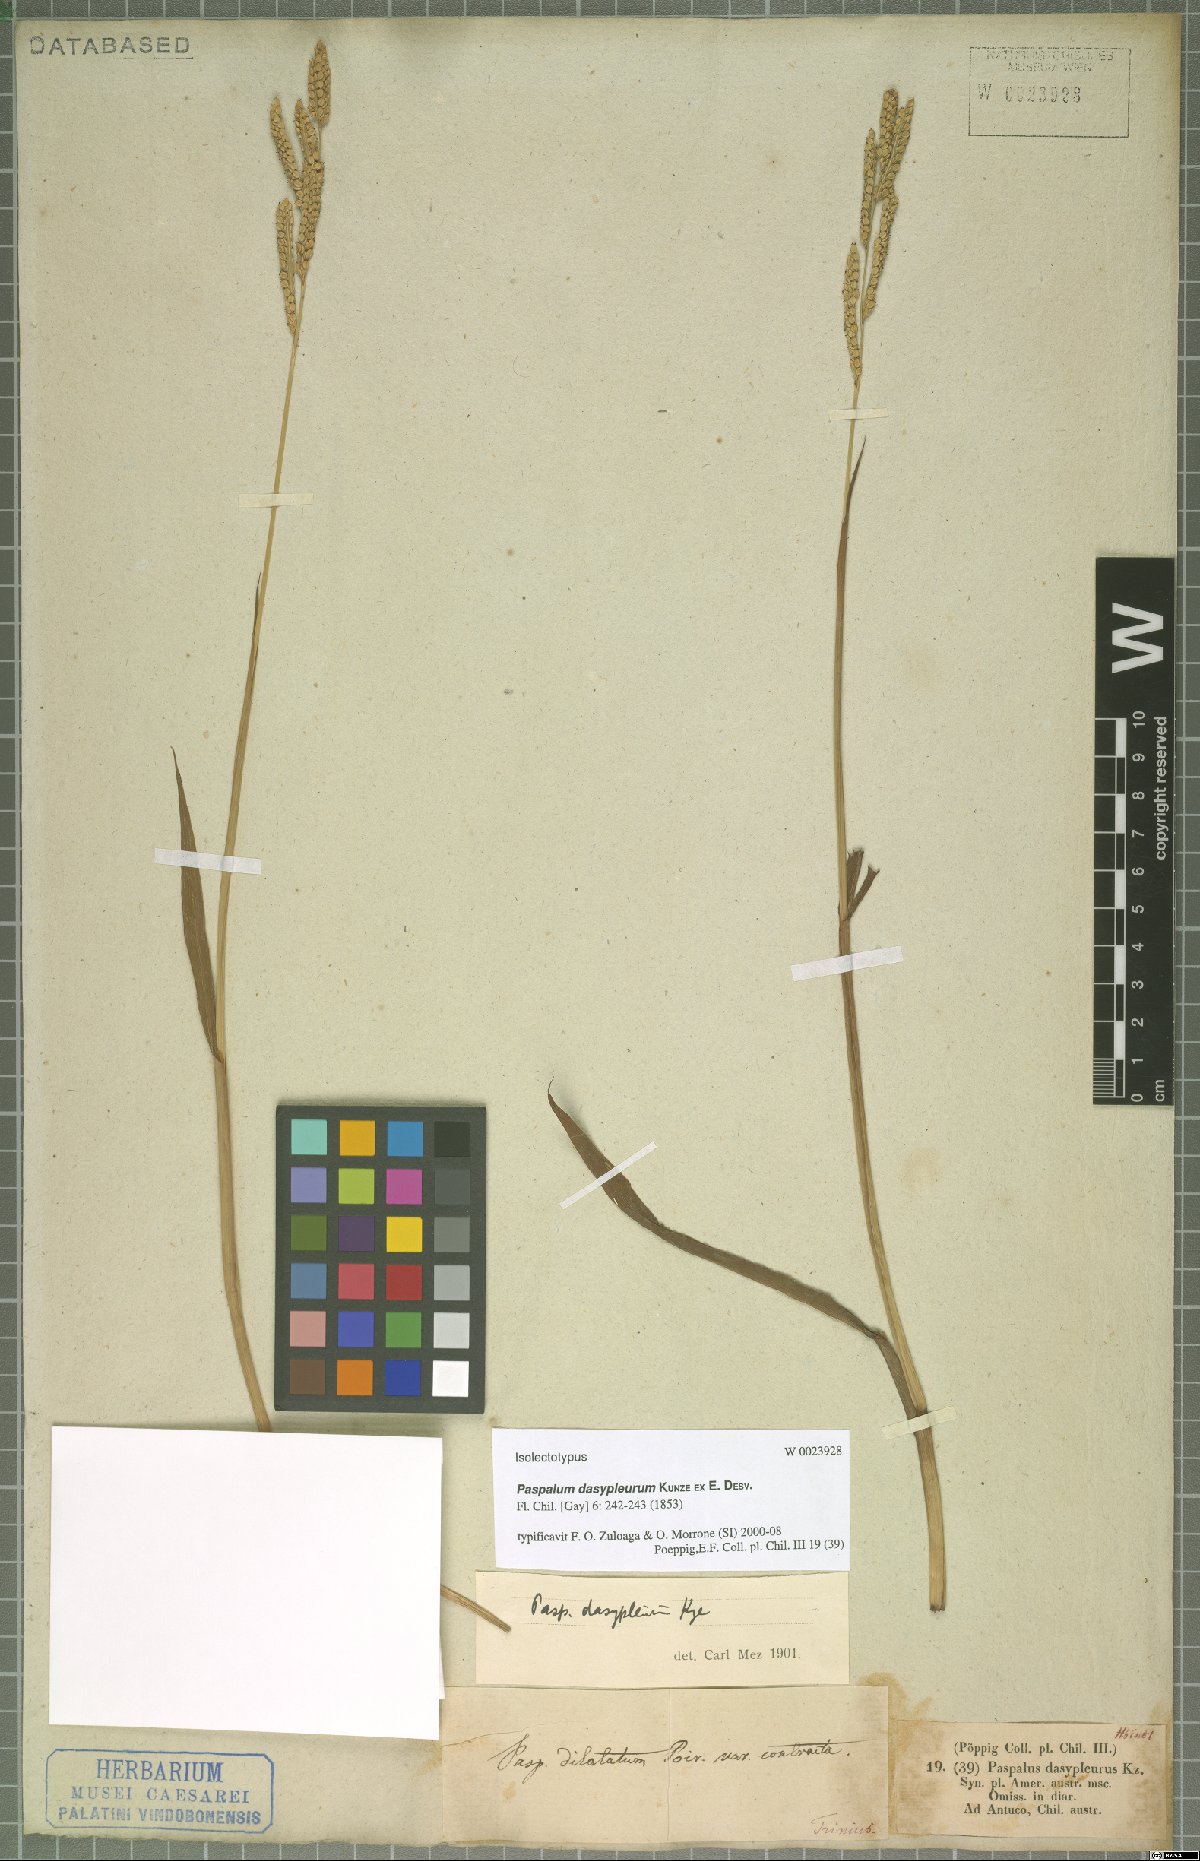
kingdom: Plantae
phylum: Tracheophyta
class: Liliopsida
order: Poales
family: Poaceae
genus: Paspalum
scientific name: Paspalum dasypleurum
